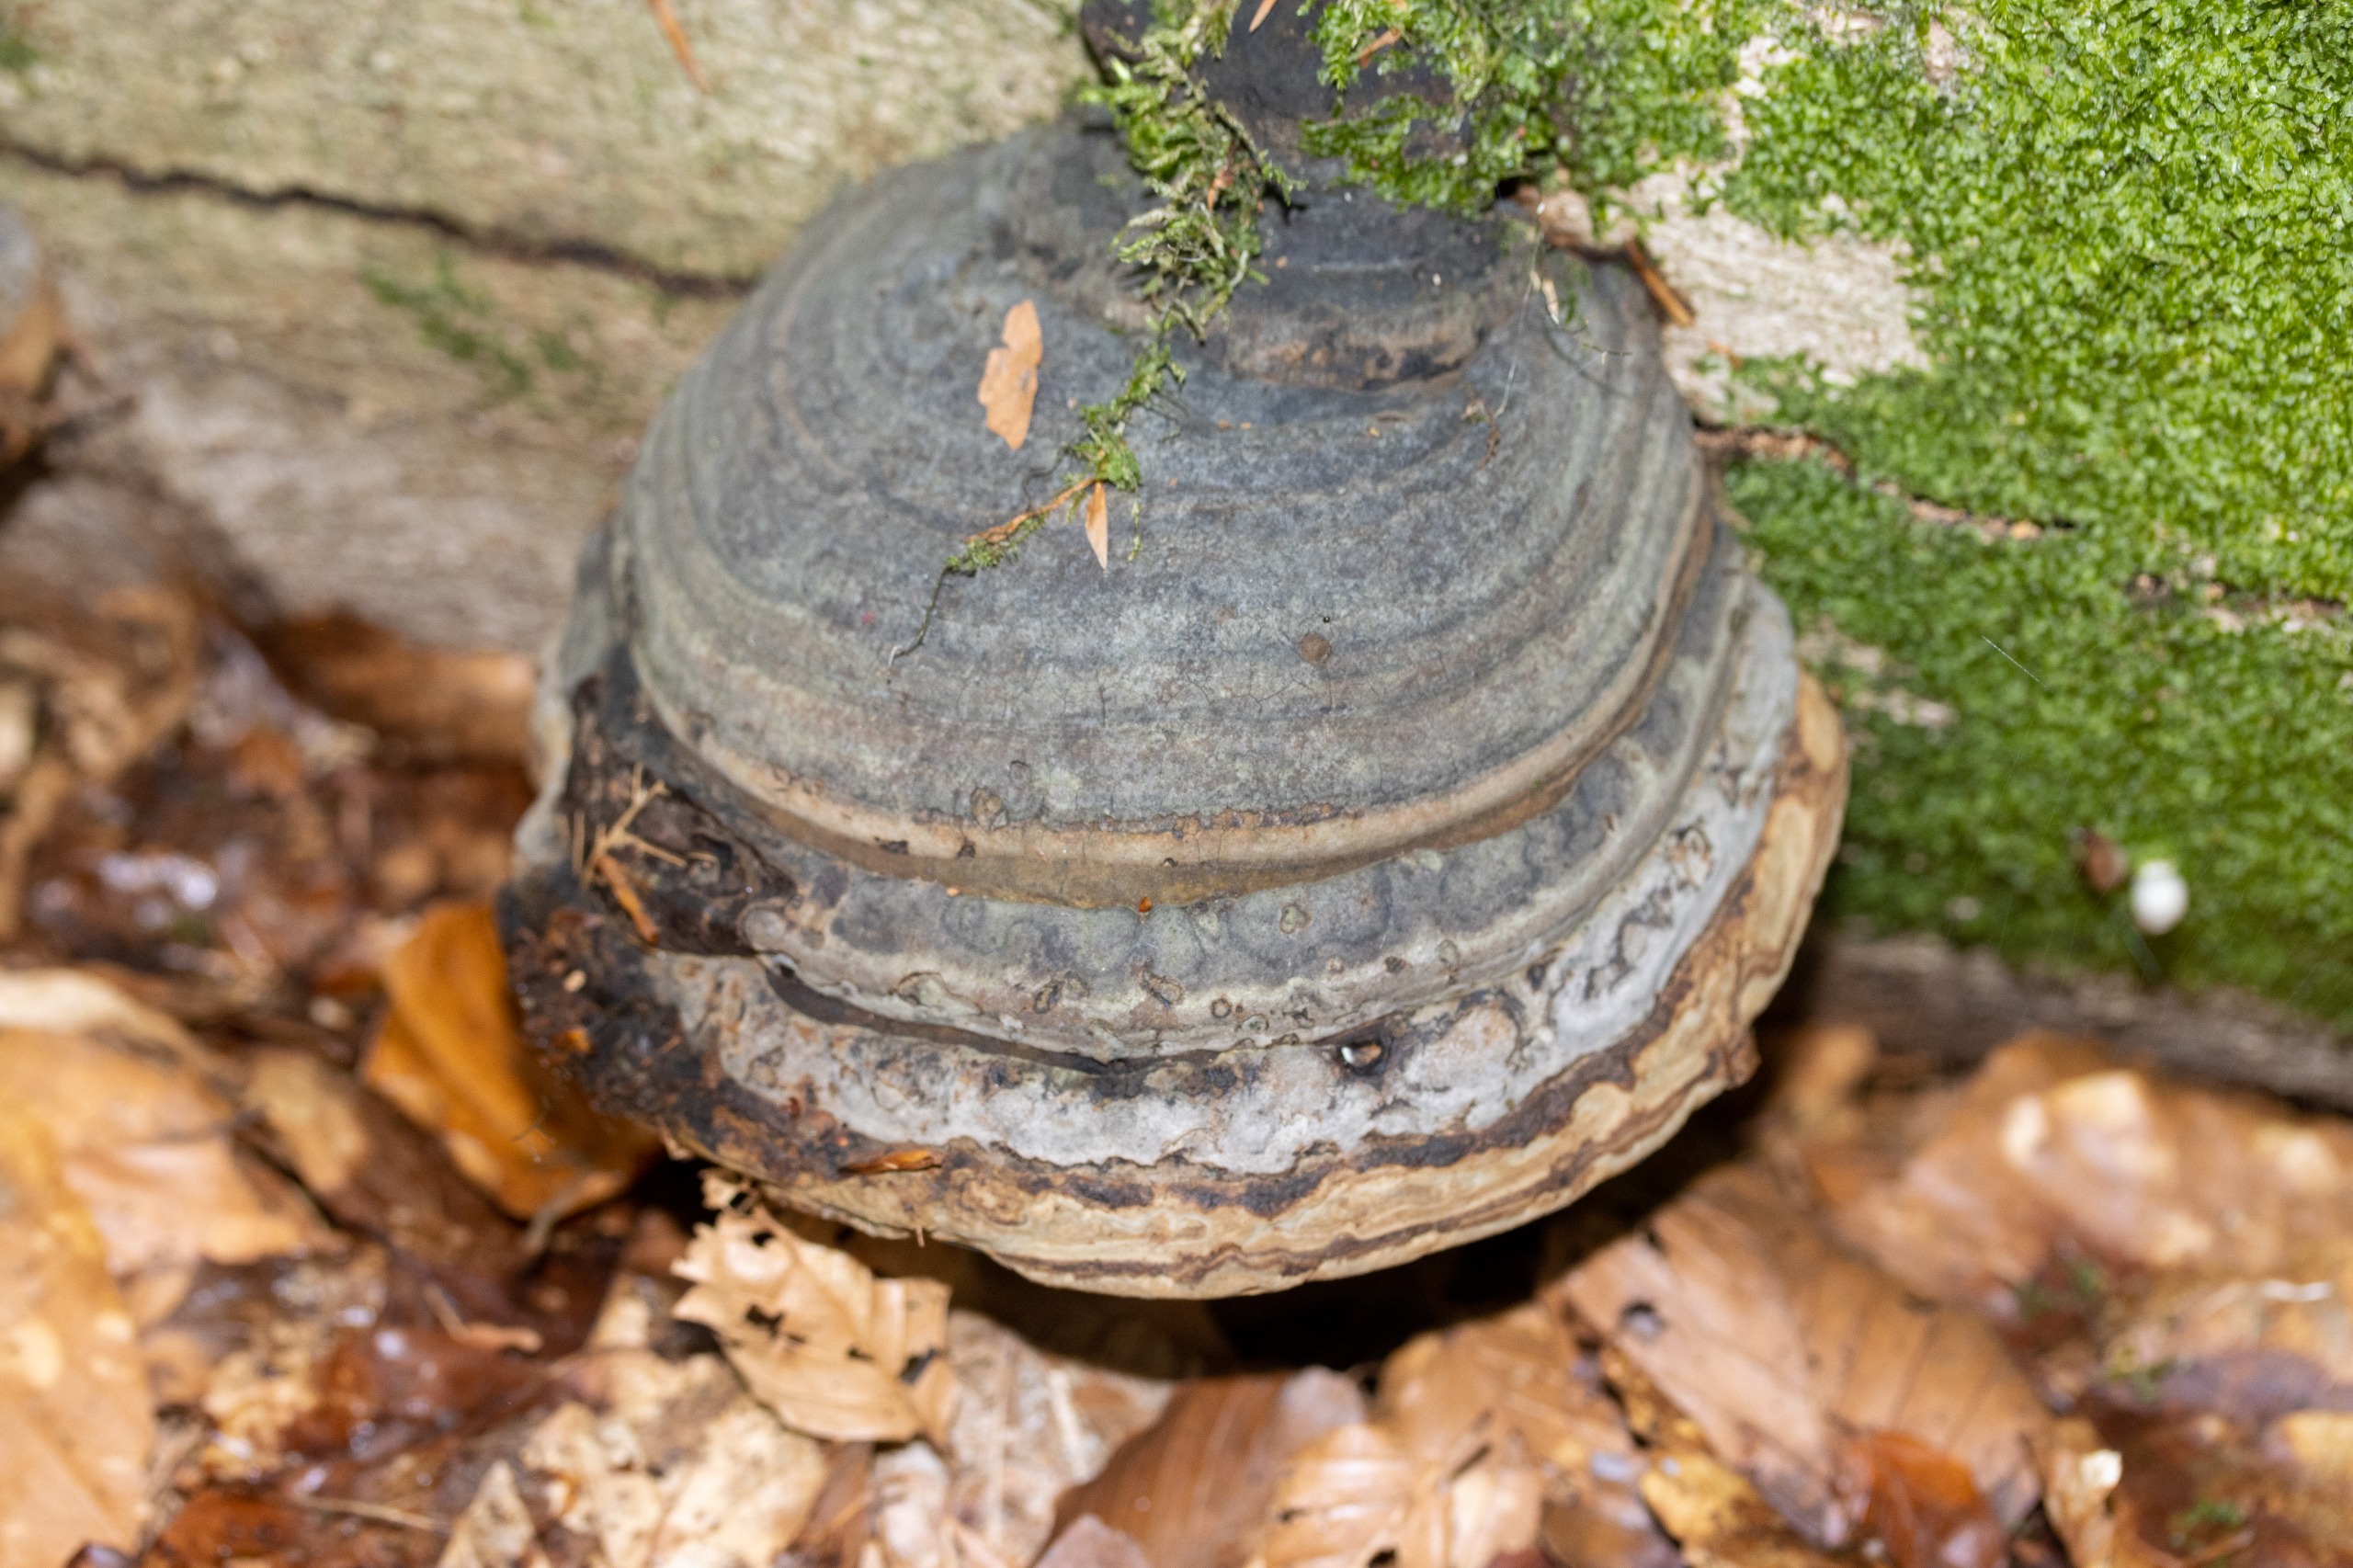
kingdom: Fungi
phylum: Basidiomycota
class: Agaricomycetes
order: Polyporales
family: Polyporaceae
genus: Fomes
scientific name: Fomes fomentarius
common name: Tøndersvamp
